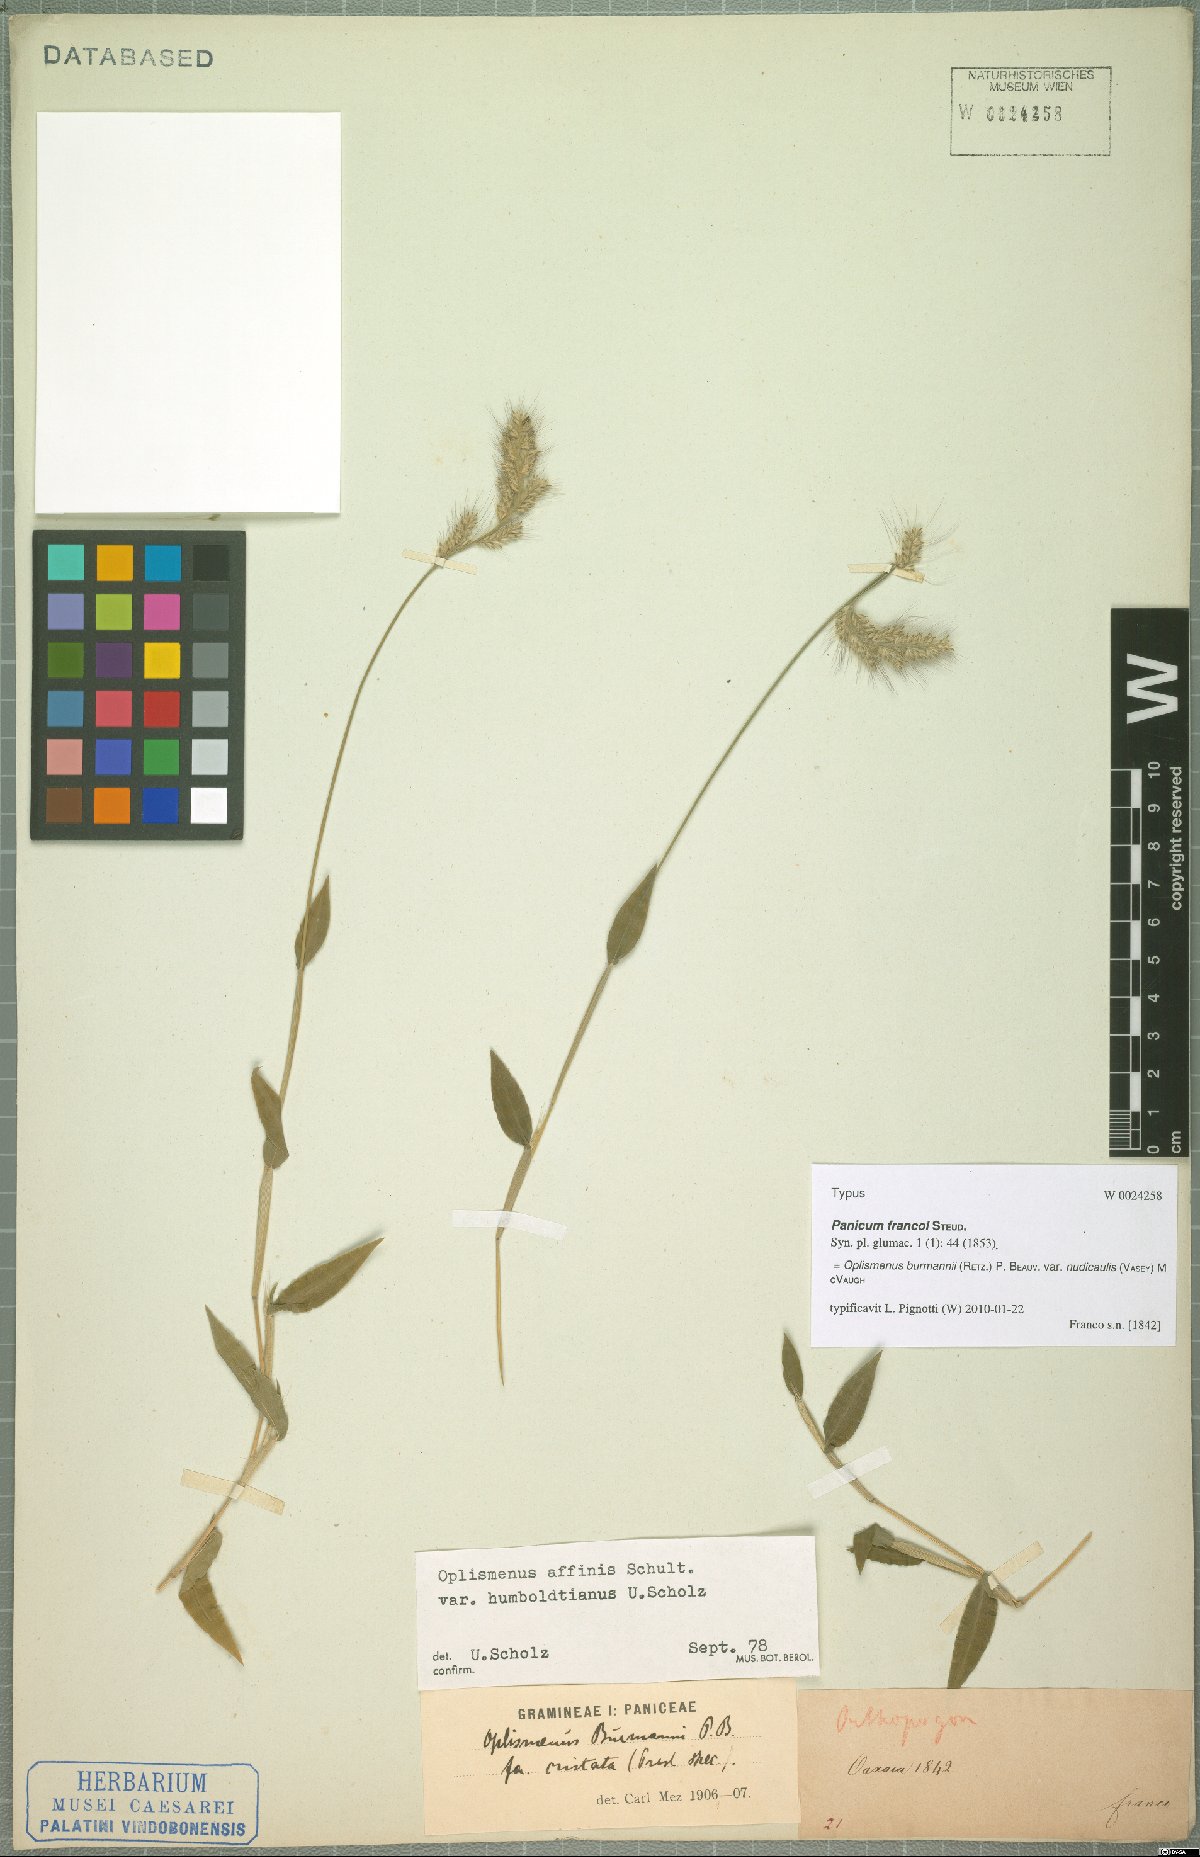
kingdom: Plantae
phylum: Tracheophyta
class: Liliopsida
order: Poales
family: Poaceae
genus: Oplismenus
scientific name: Oplismenus burmanni
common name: Burmann's basketgrass
